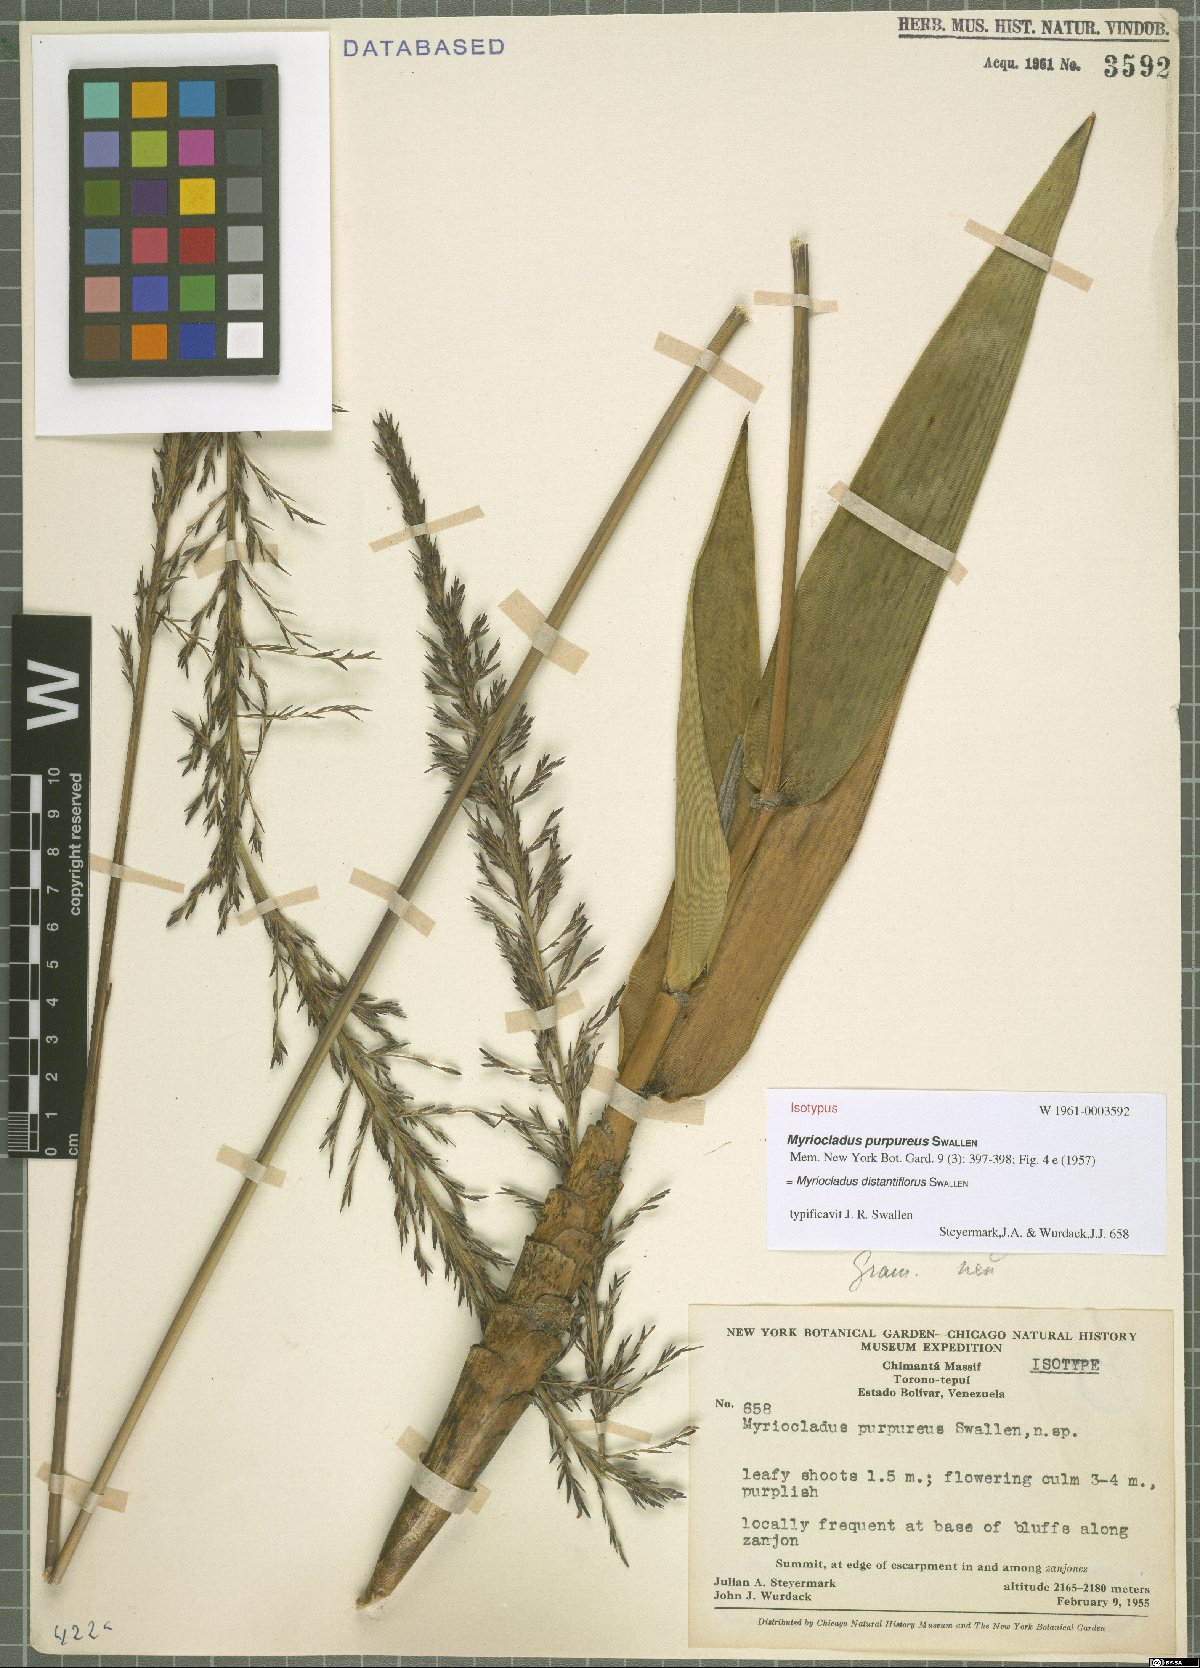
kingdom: Plantae
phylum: Tracheophyta
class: Liliopsida
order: Poales
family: Poaceae
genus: Myriocladus
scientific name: Myriocladus distantiflorus
